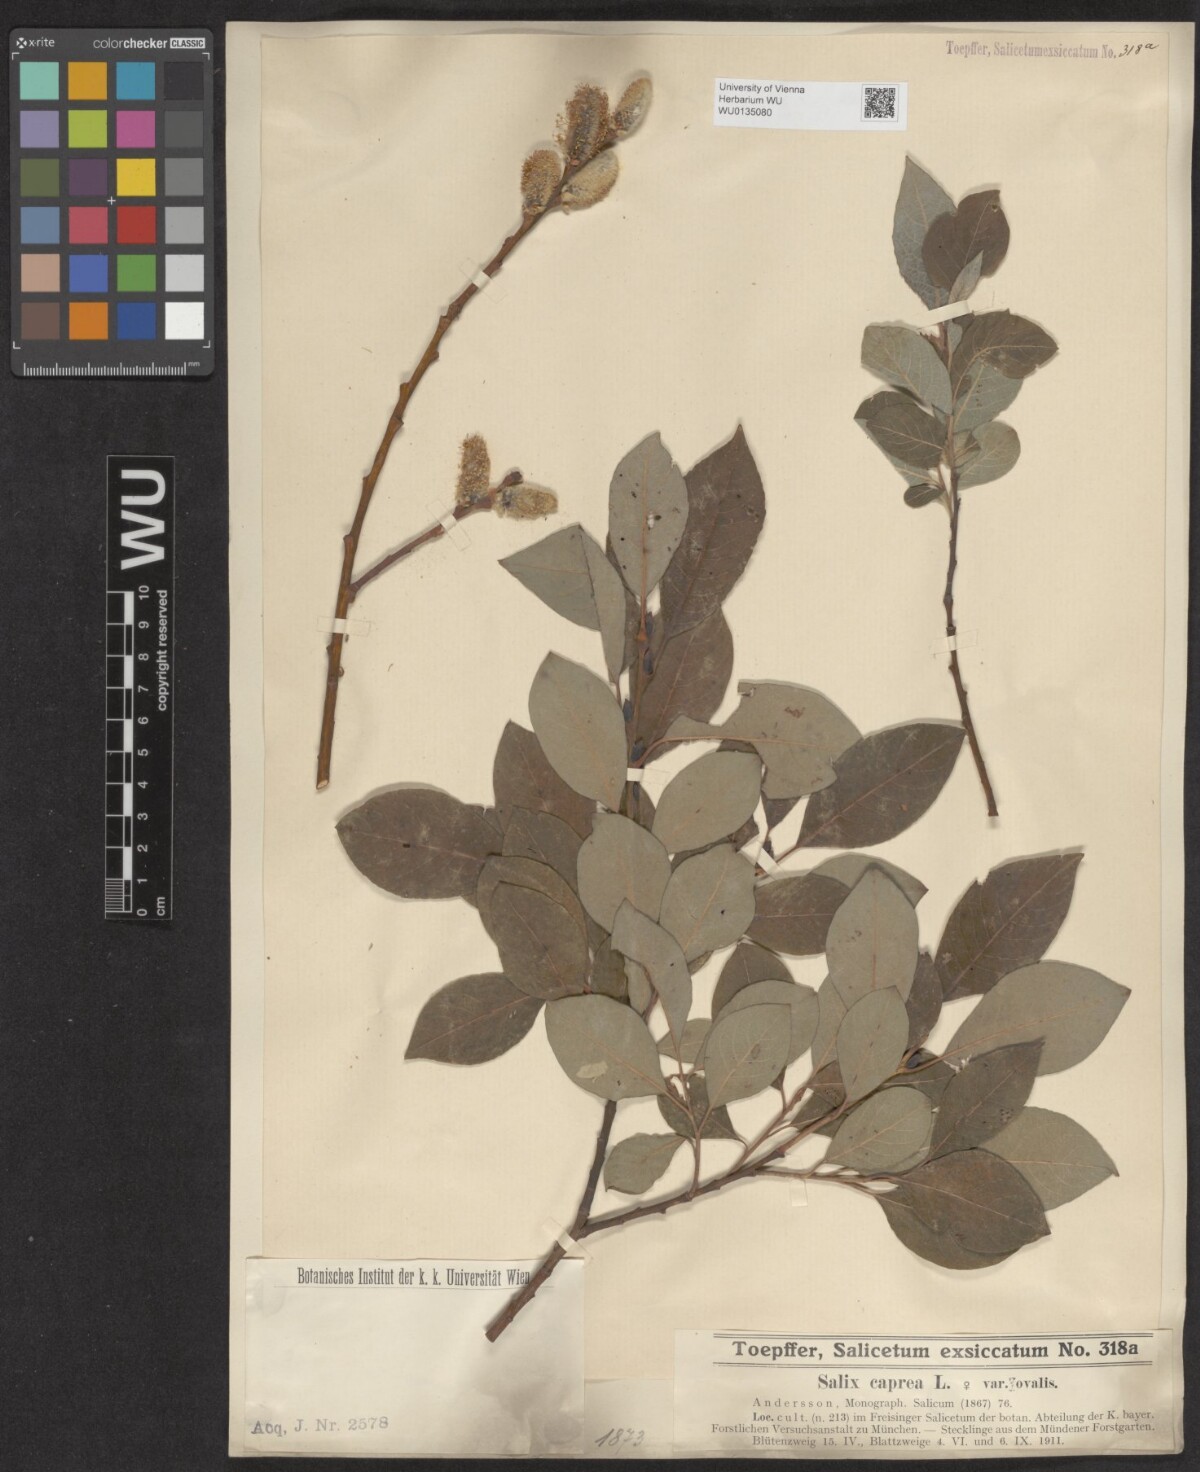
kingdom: Plantae
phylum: Tracheophyta
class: Magnoliopsida
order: Malpighiales
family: Salicaceae
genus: Salix
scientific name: Salix caprea
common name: Goat willow
